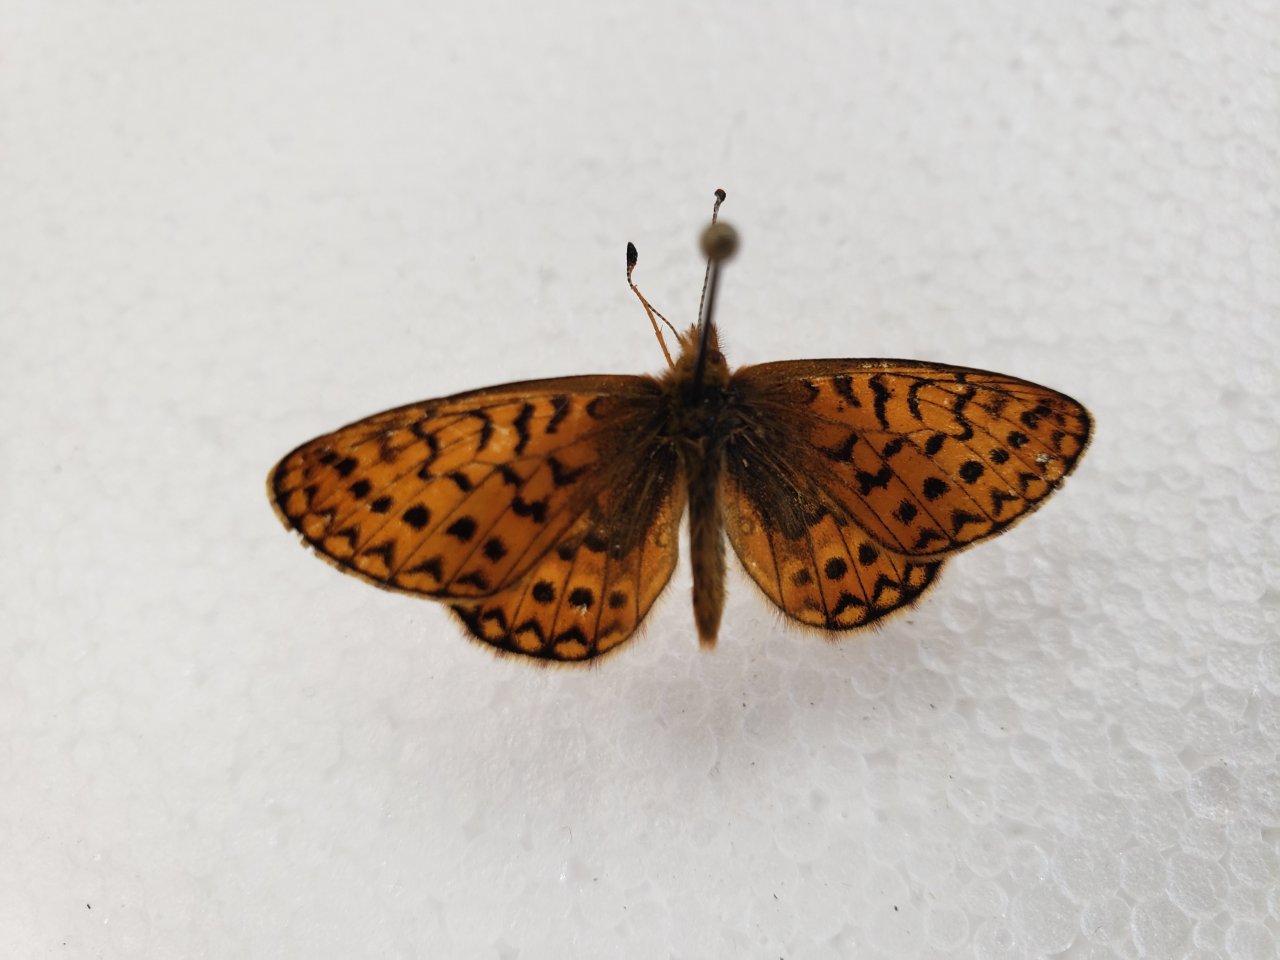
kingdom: Animalia
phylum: Arthropoda
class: Insecta
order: Lepidoptera
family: Nymphalidae
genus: Boloria
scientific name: Boloria eunomia
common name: Bog Fritillary
